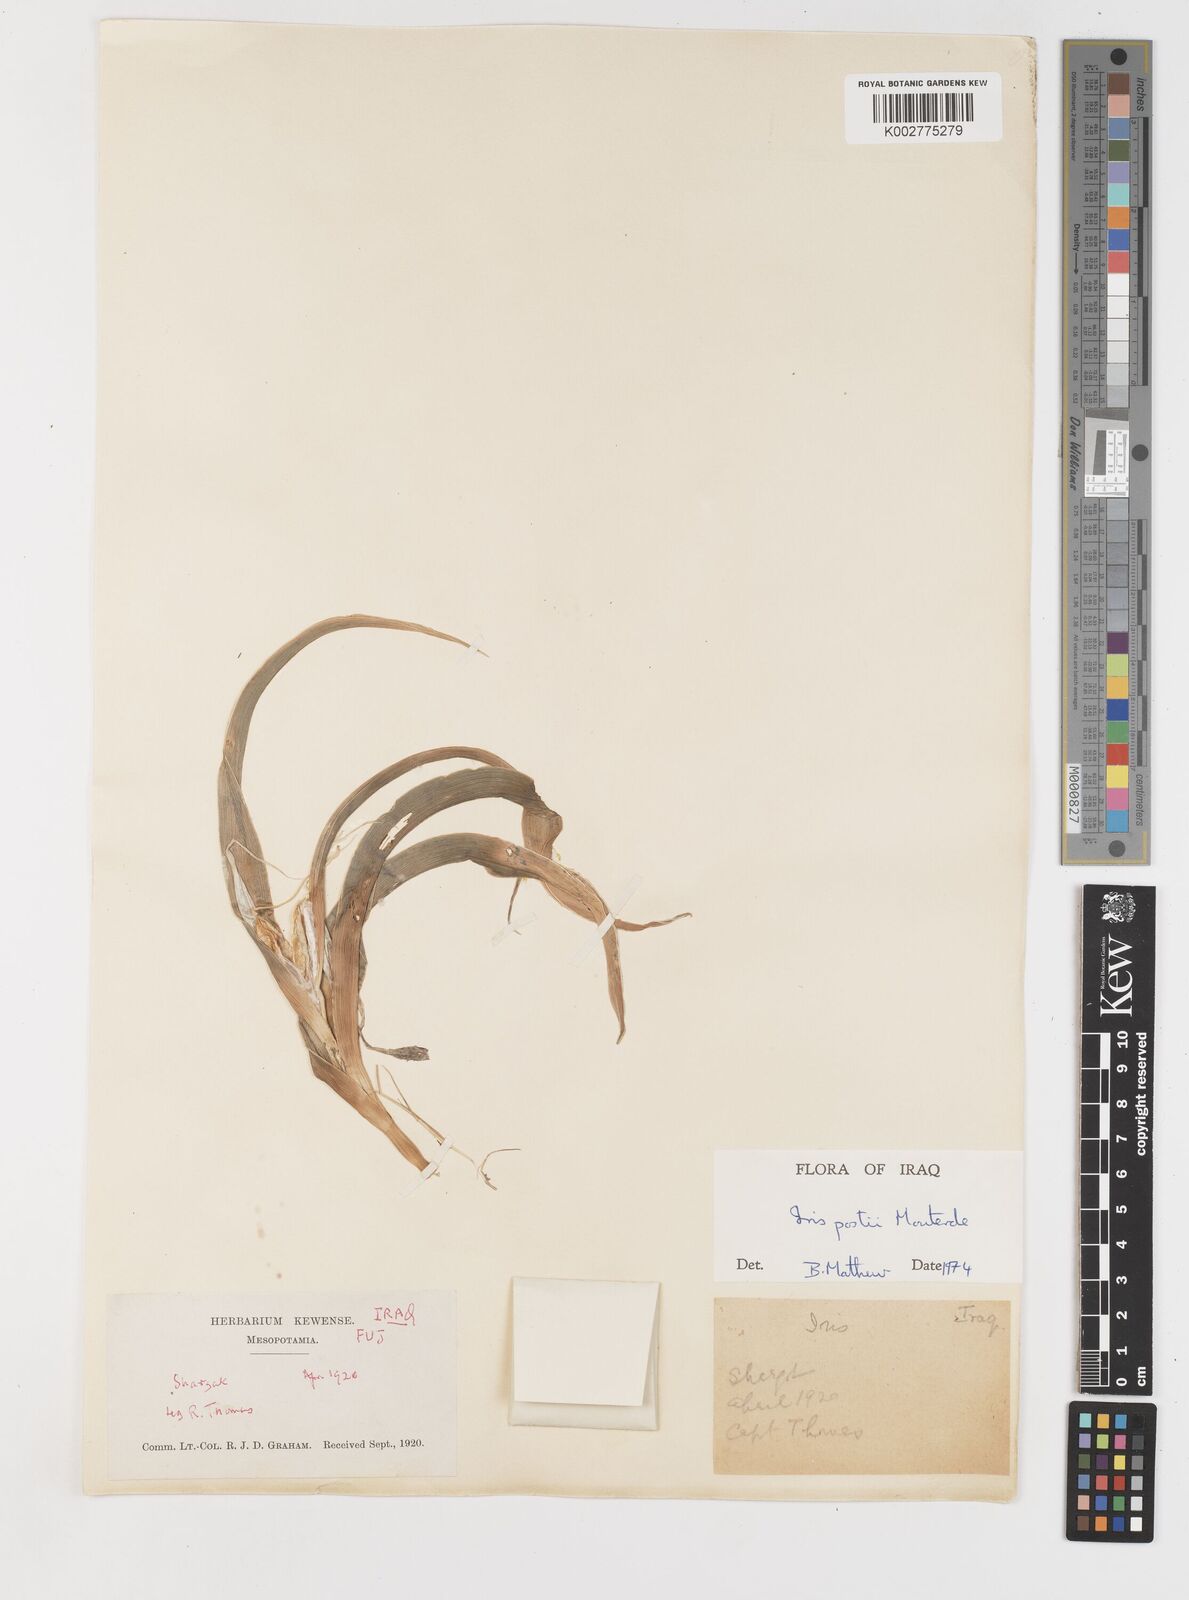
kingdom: Plantae
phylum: Tracheophyta
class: Liliopsida
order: Asparagales
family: Iridaceae
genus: Iris
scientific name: Iris postii
